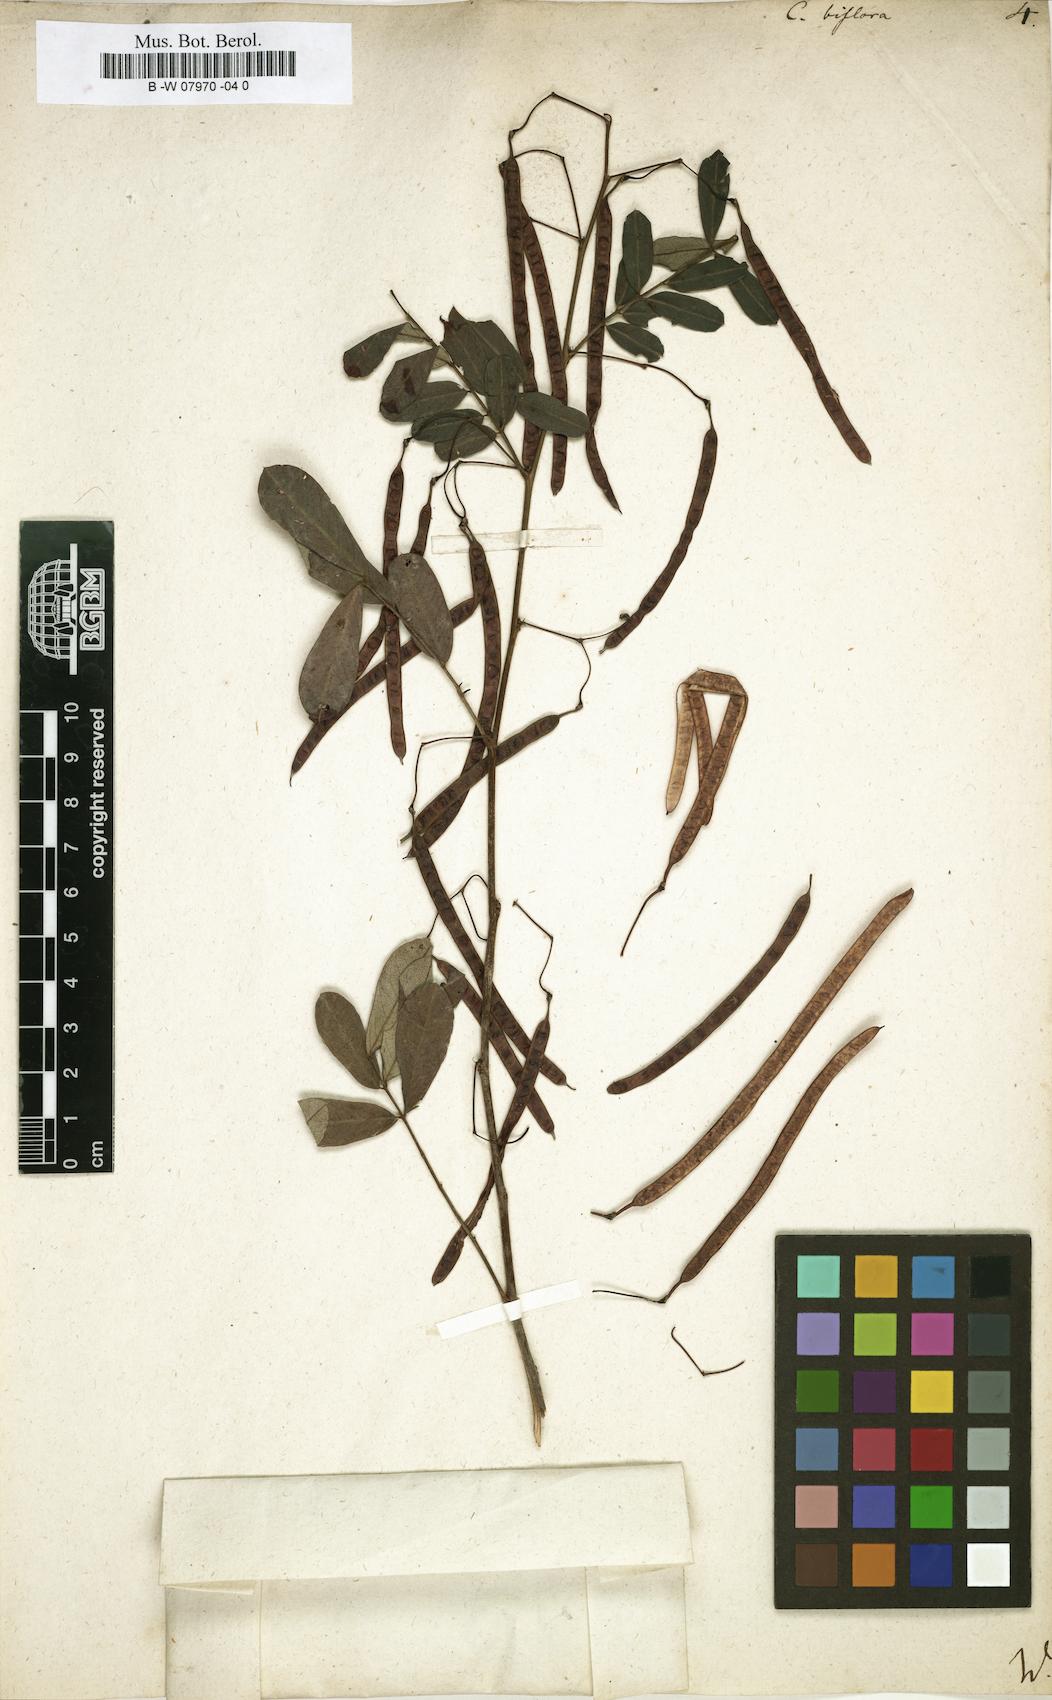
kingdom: Plantae
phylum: Tracheophyta
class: Magnoliopsida
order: Fabales
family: Fabaceae
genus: Senna
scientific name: Senna pallida
